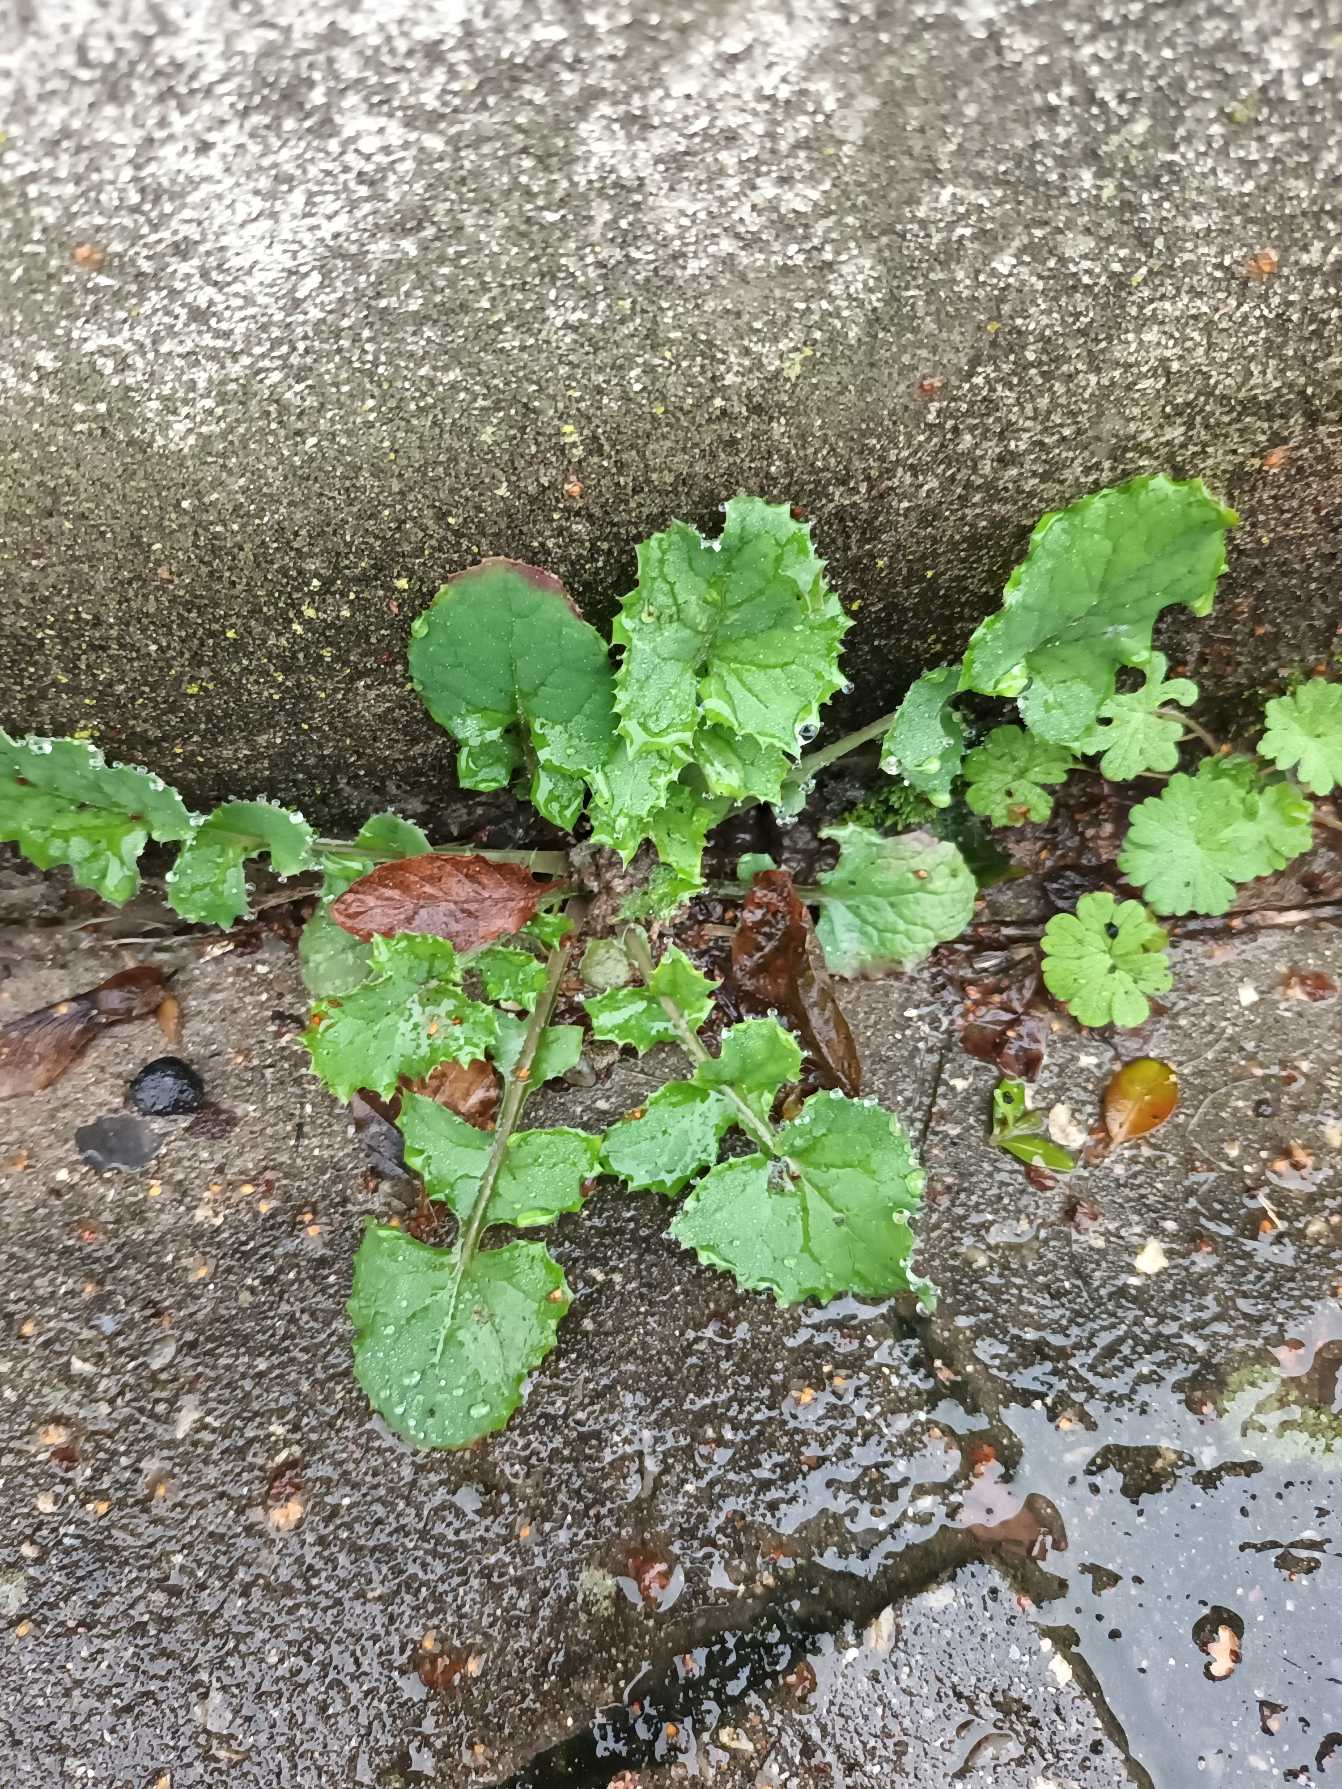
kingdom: Plantae
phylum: Tracheophyta
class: Magnoliopsida
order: Asterales
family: Asteraceae
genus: Sonchus
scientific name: Sonchus oleraceus
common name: Almindelig svinemælk
